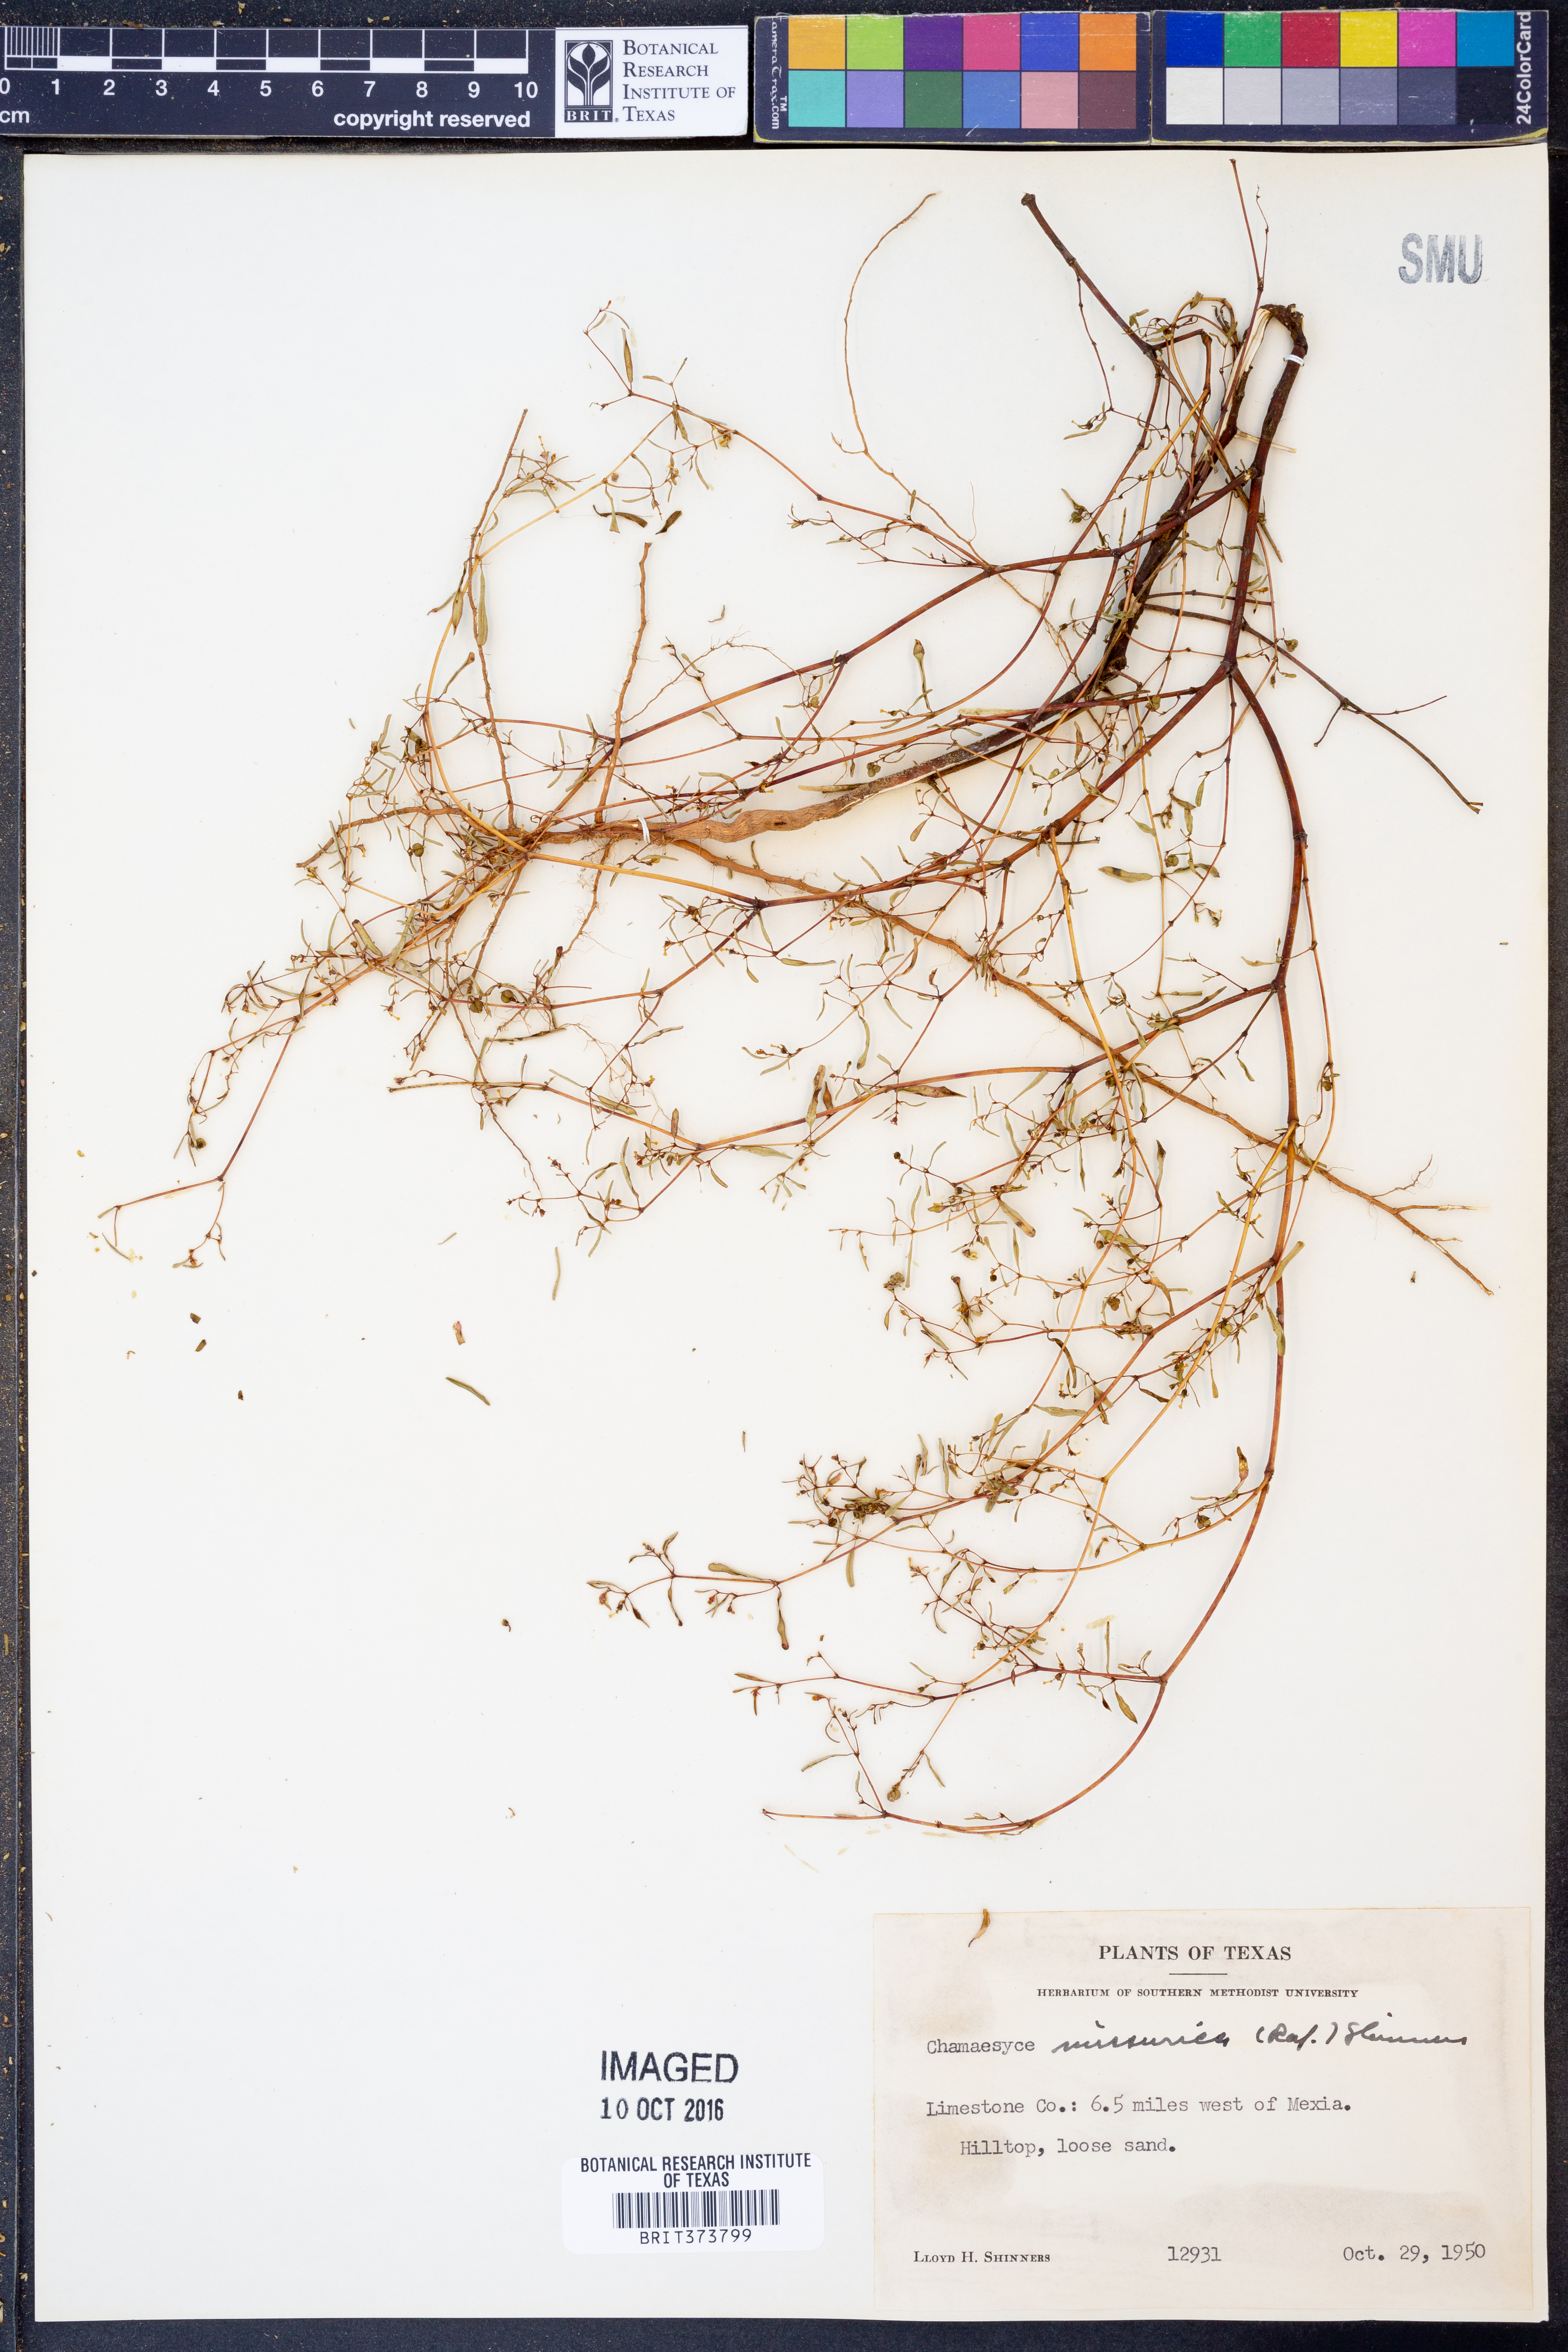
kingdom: Plantae
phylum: Tracheophyta
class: Magnoliopsida
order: Malpighiales
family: Euphorbiaceae
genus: Euphorbia
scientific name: Euphorbia missurica
